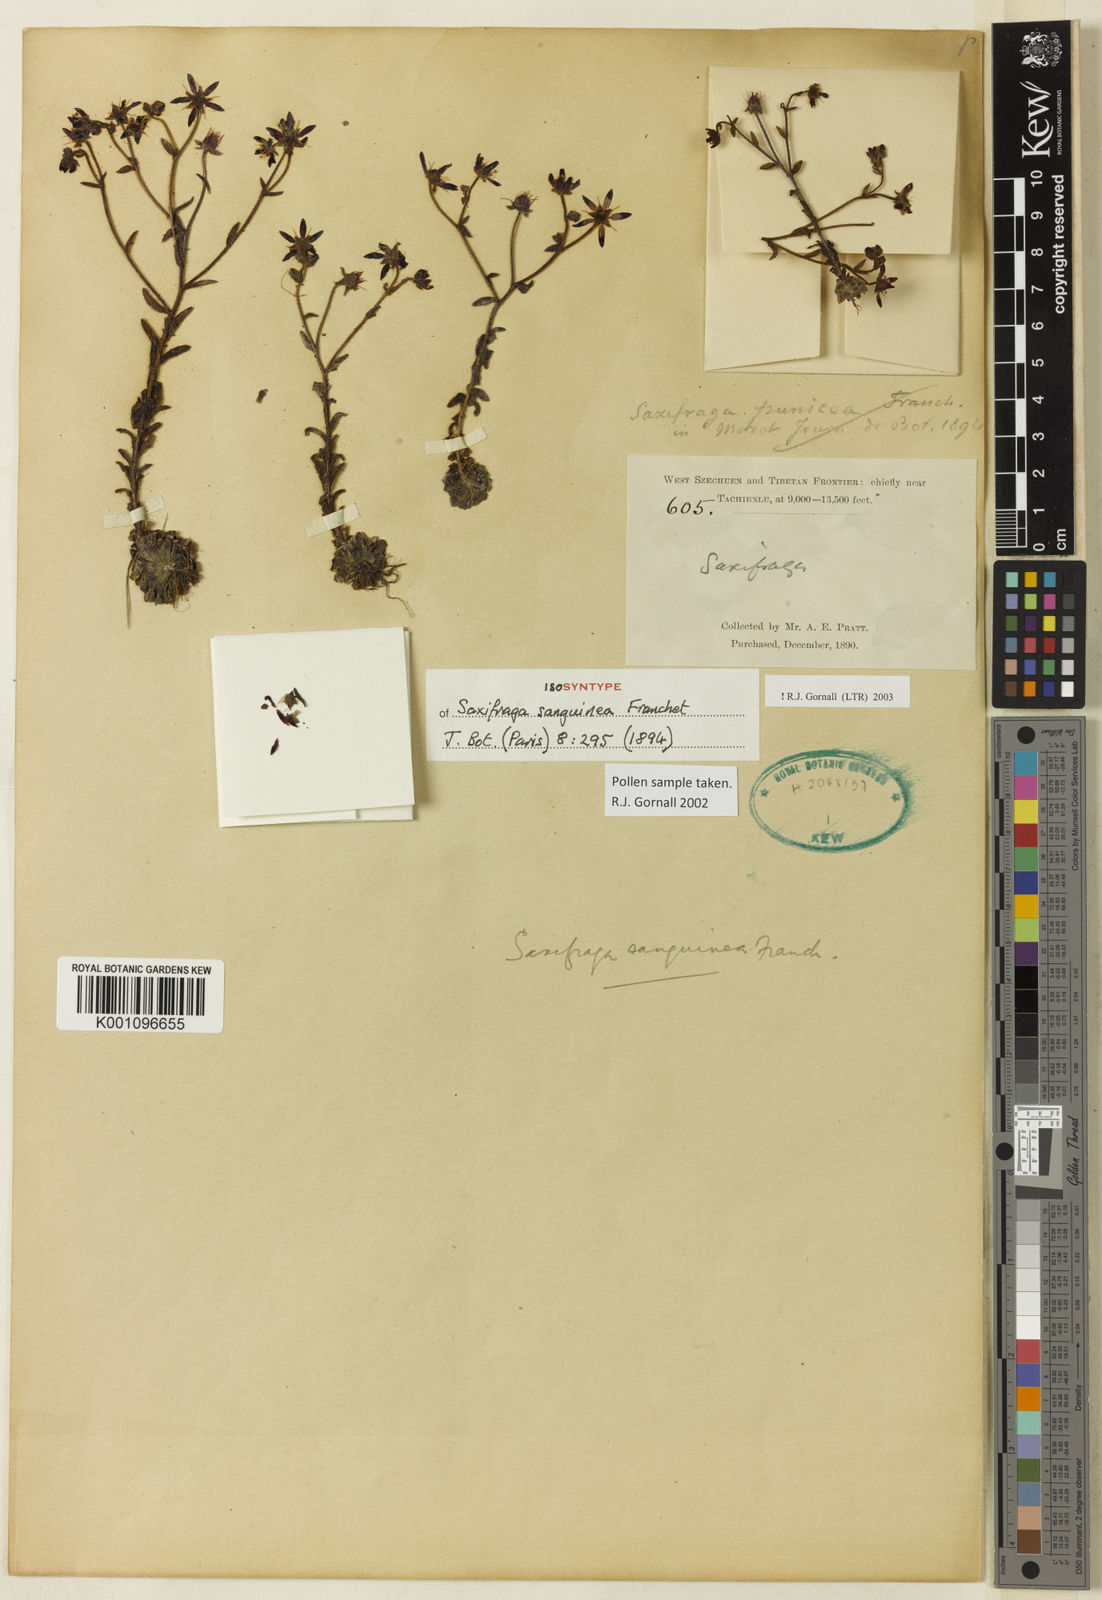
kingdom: Plantae
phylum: Tracheophyta
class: Magnoliopsida
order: Saxifragales
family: Saxifragaceae
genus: Saxifraga
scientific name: Saxifraga sanguinea
